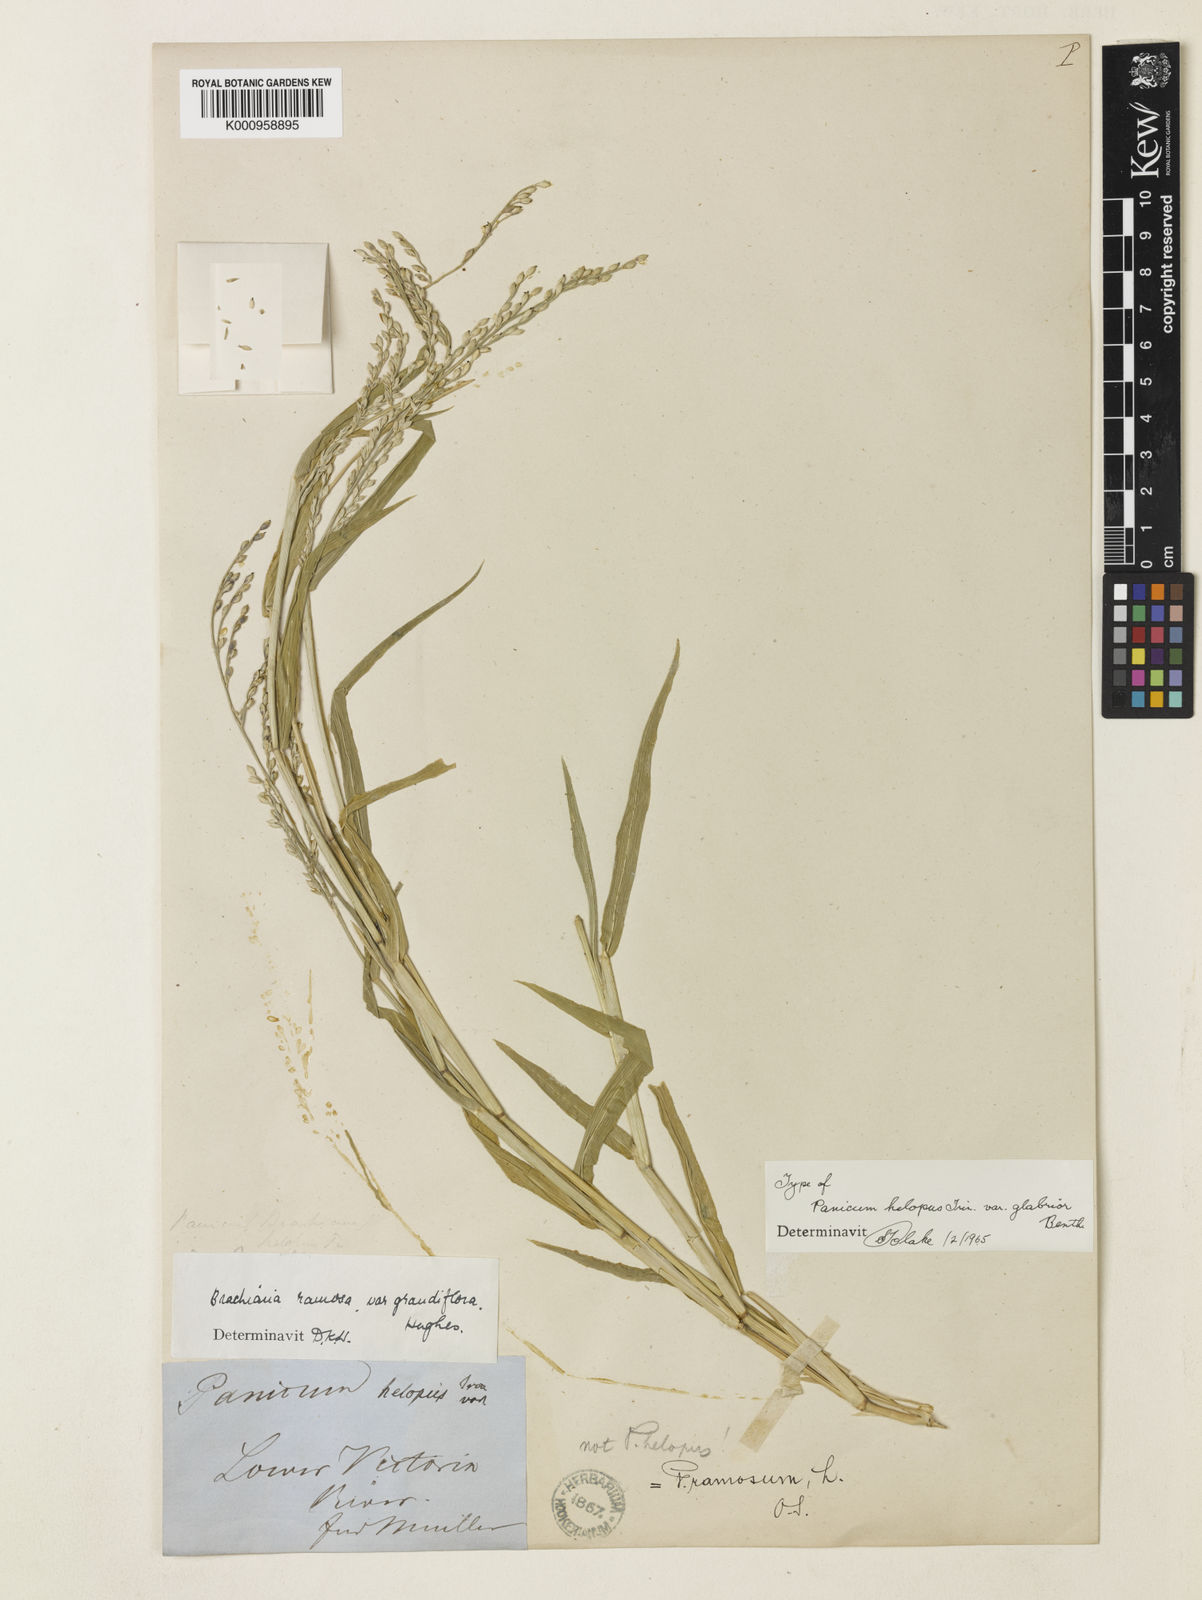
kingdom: Plantae
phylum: Tracheophyta
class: Liliopsida
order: Poales
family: Poaceae
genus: Urochloa
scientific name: Urochloa pubigera
